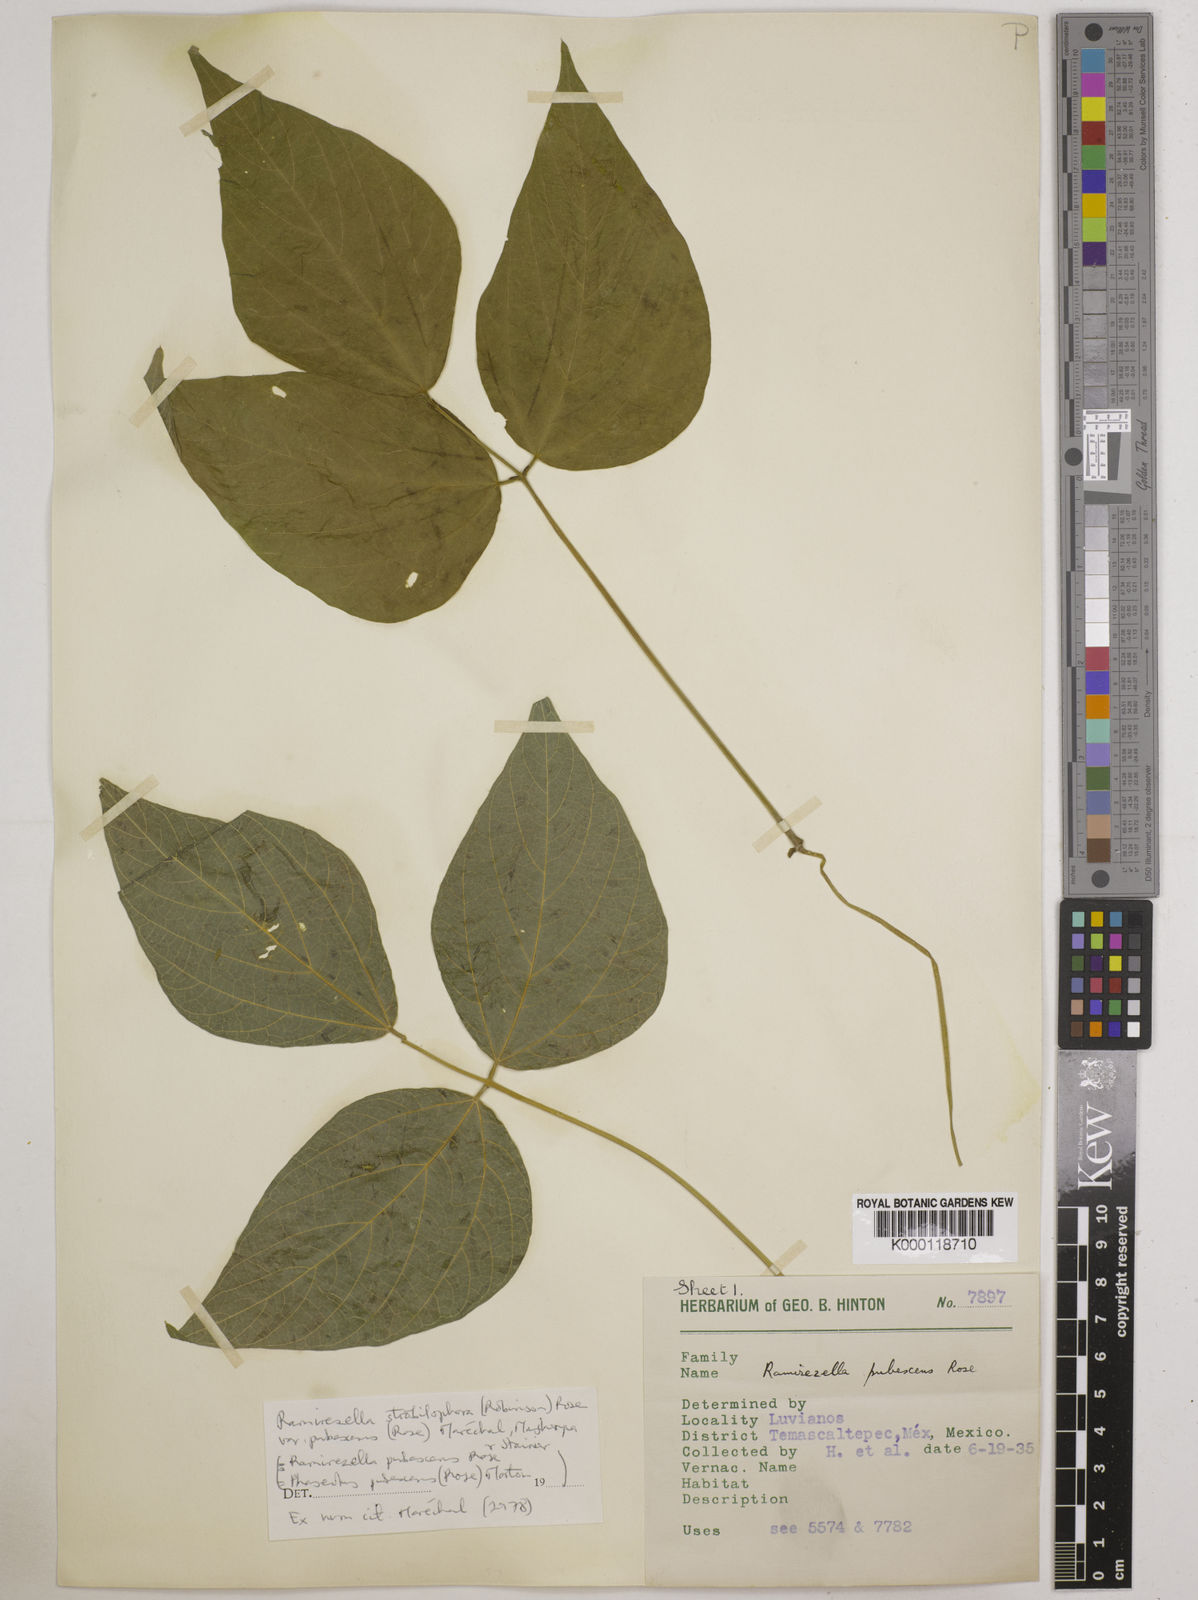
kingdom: Plantae
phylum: Tracheophyta
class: Magnoliopsida
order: Fabales
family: Fabaceae
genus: Ramirezella
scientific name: Ramirezella strobilophora
